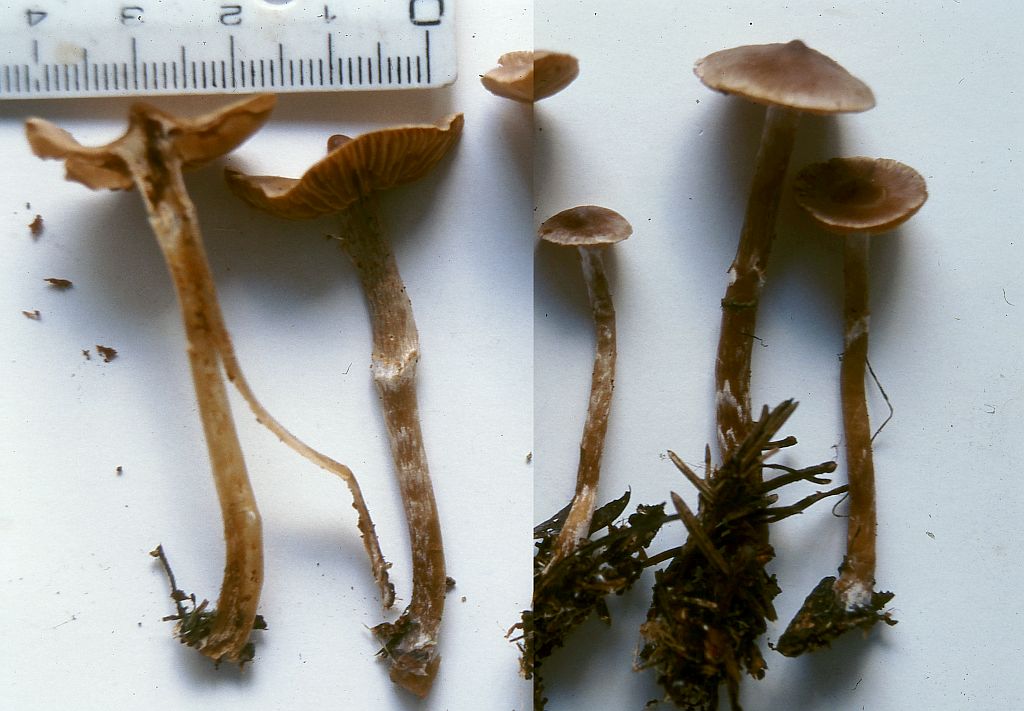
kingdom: Fungi
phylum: Basidiomycota
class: Agaricomycetes
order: Agaricales
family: Cortinariaceae
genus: Cortinarius
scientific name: Cortinarius comptulus
